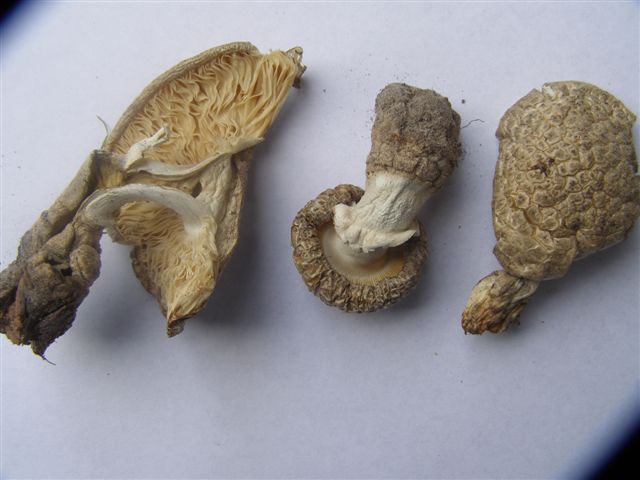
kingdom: Fungi
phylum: Basidiomycota
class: Agaricomycetes
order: Agaricales
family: Amanitaceae
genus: Amanita
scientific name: Amanita
